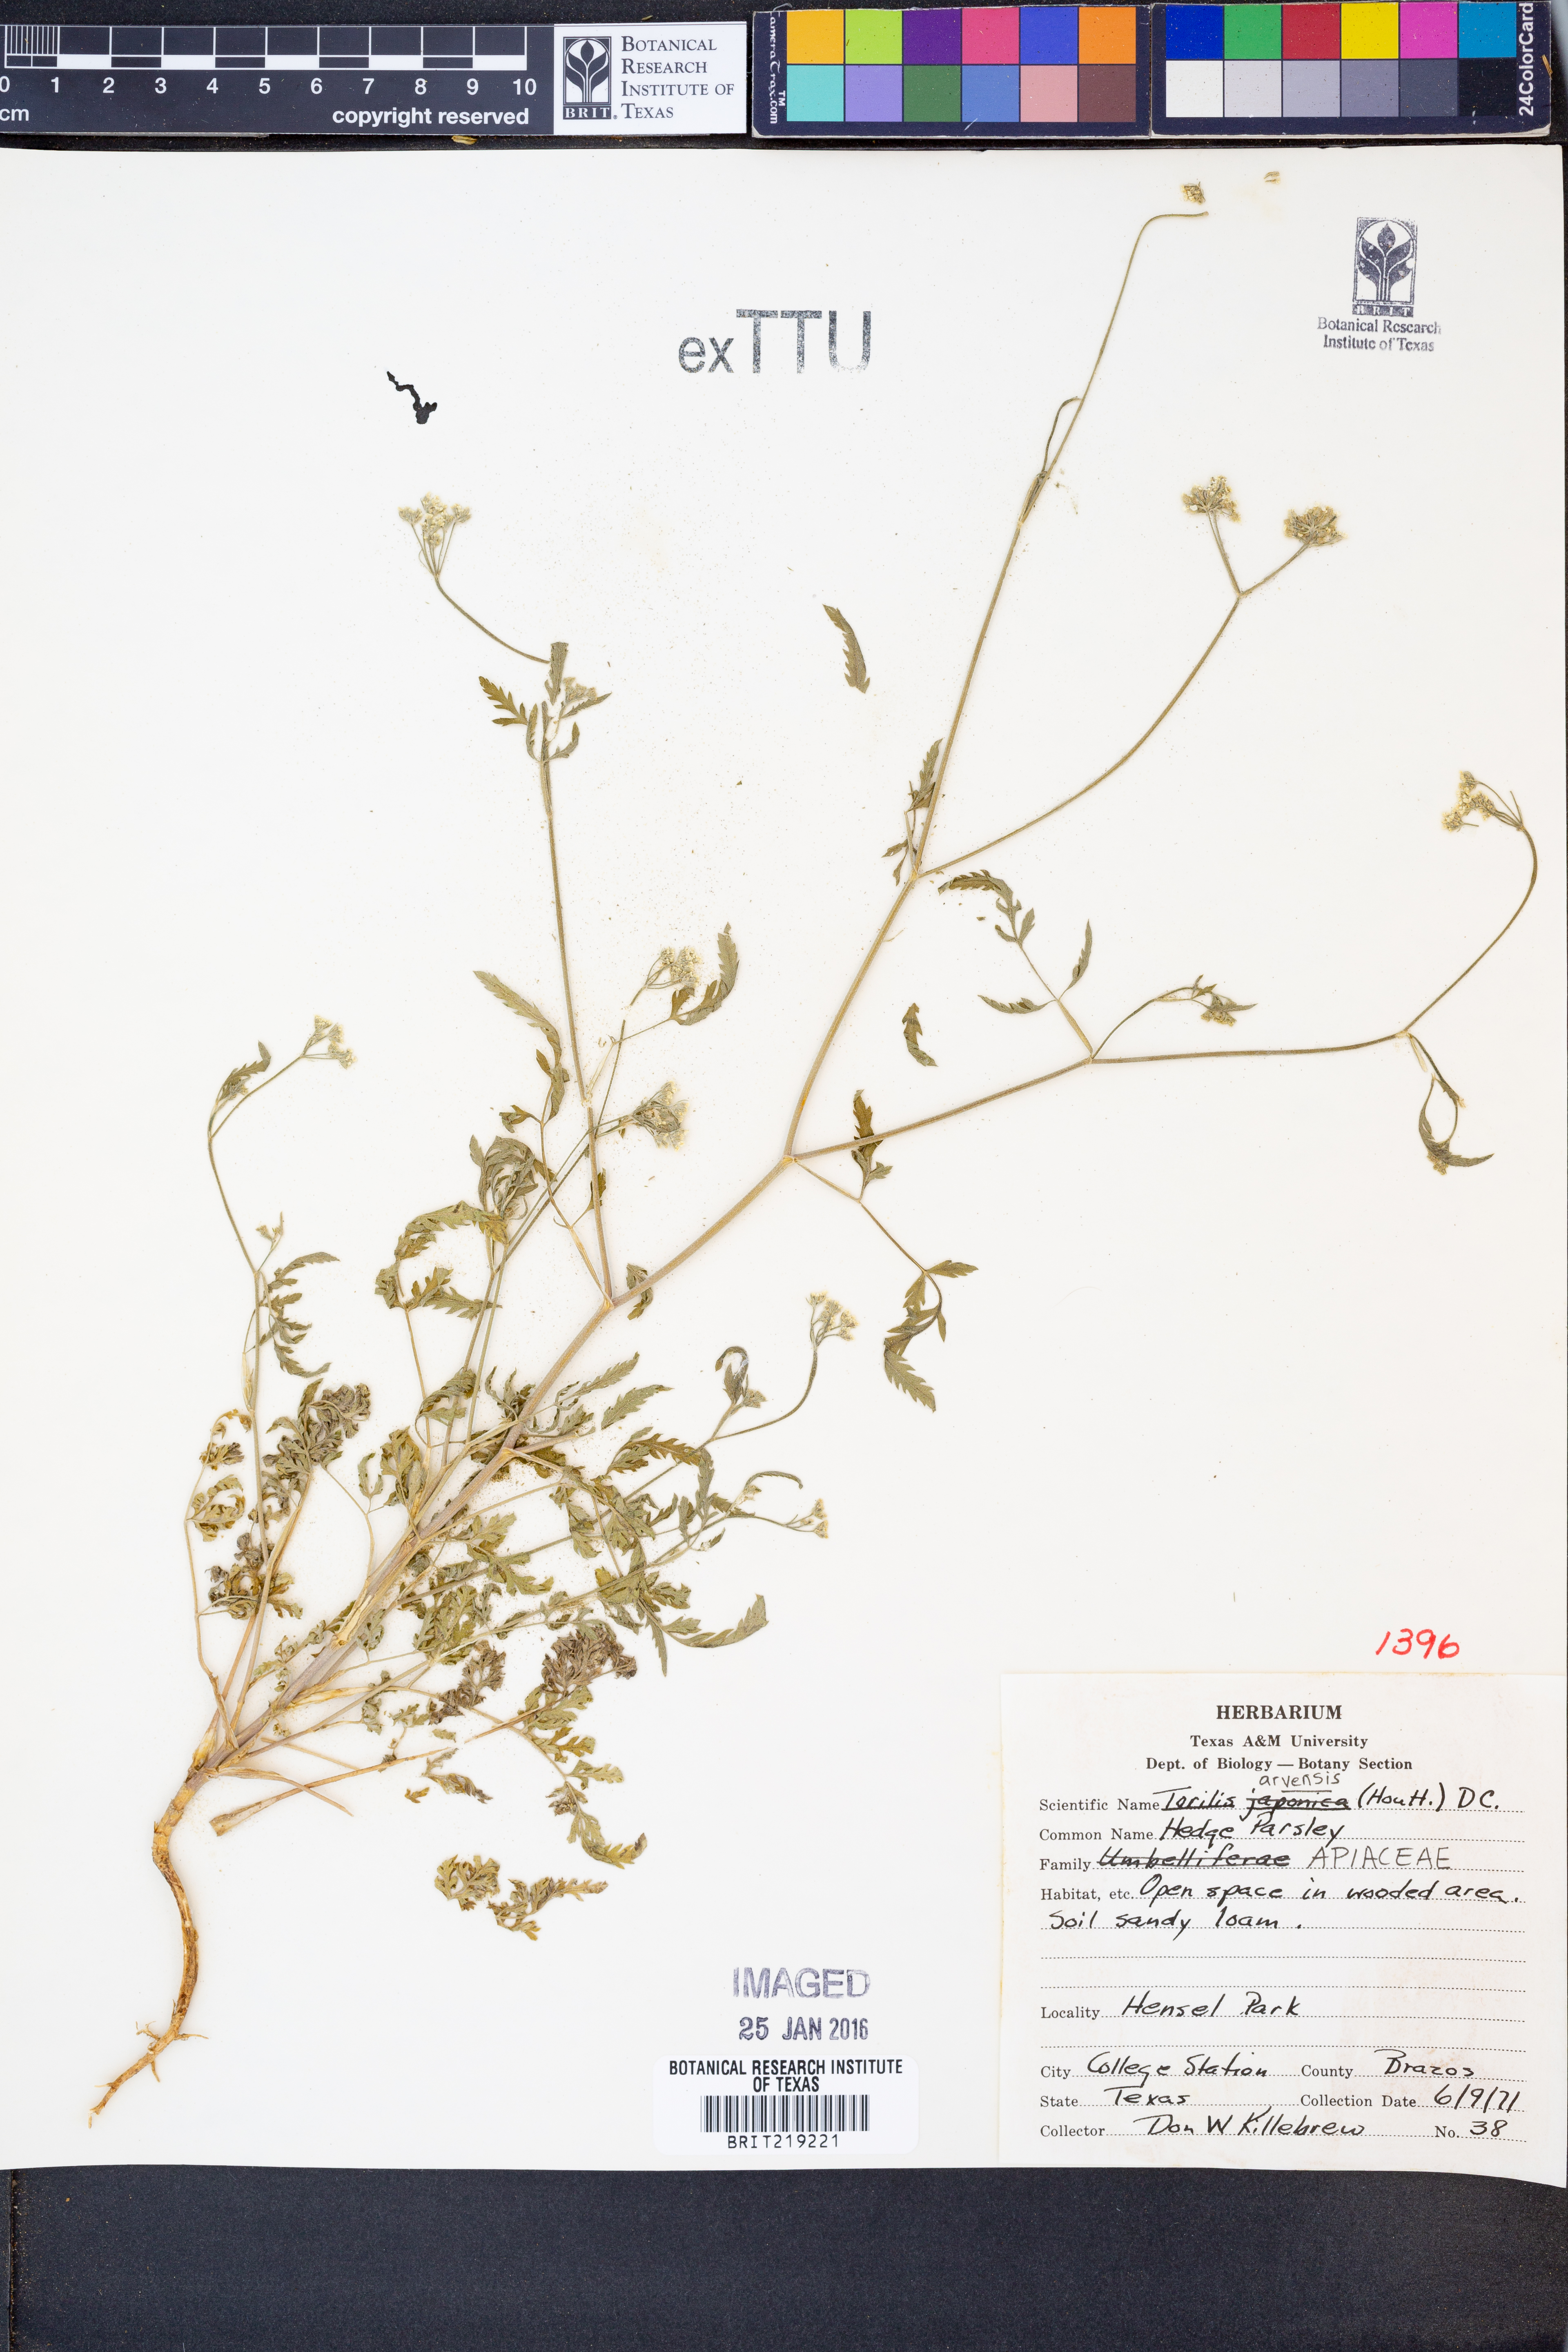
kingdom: Plantae
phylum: Tracheophyta
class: Magnoliopsida
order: Apiales
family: Apiaceae
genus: Torilis
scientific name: Torilis arvensis
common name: Spreading hedge-parsley
